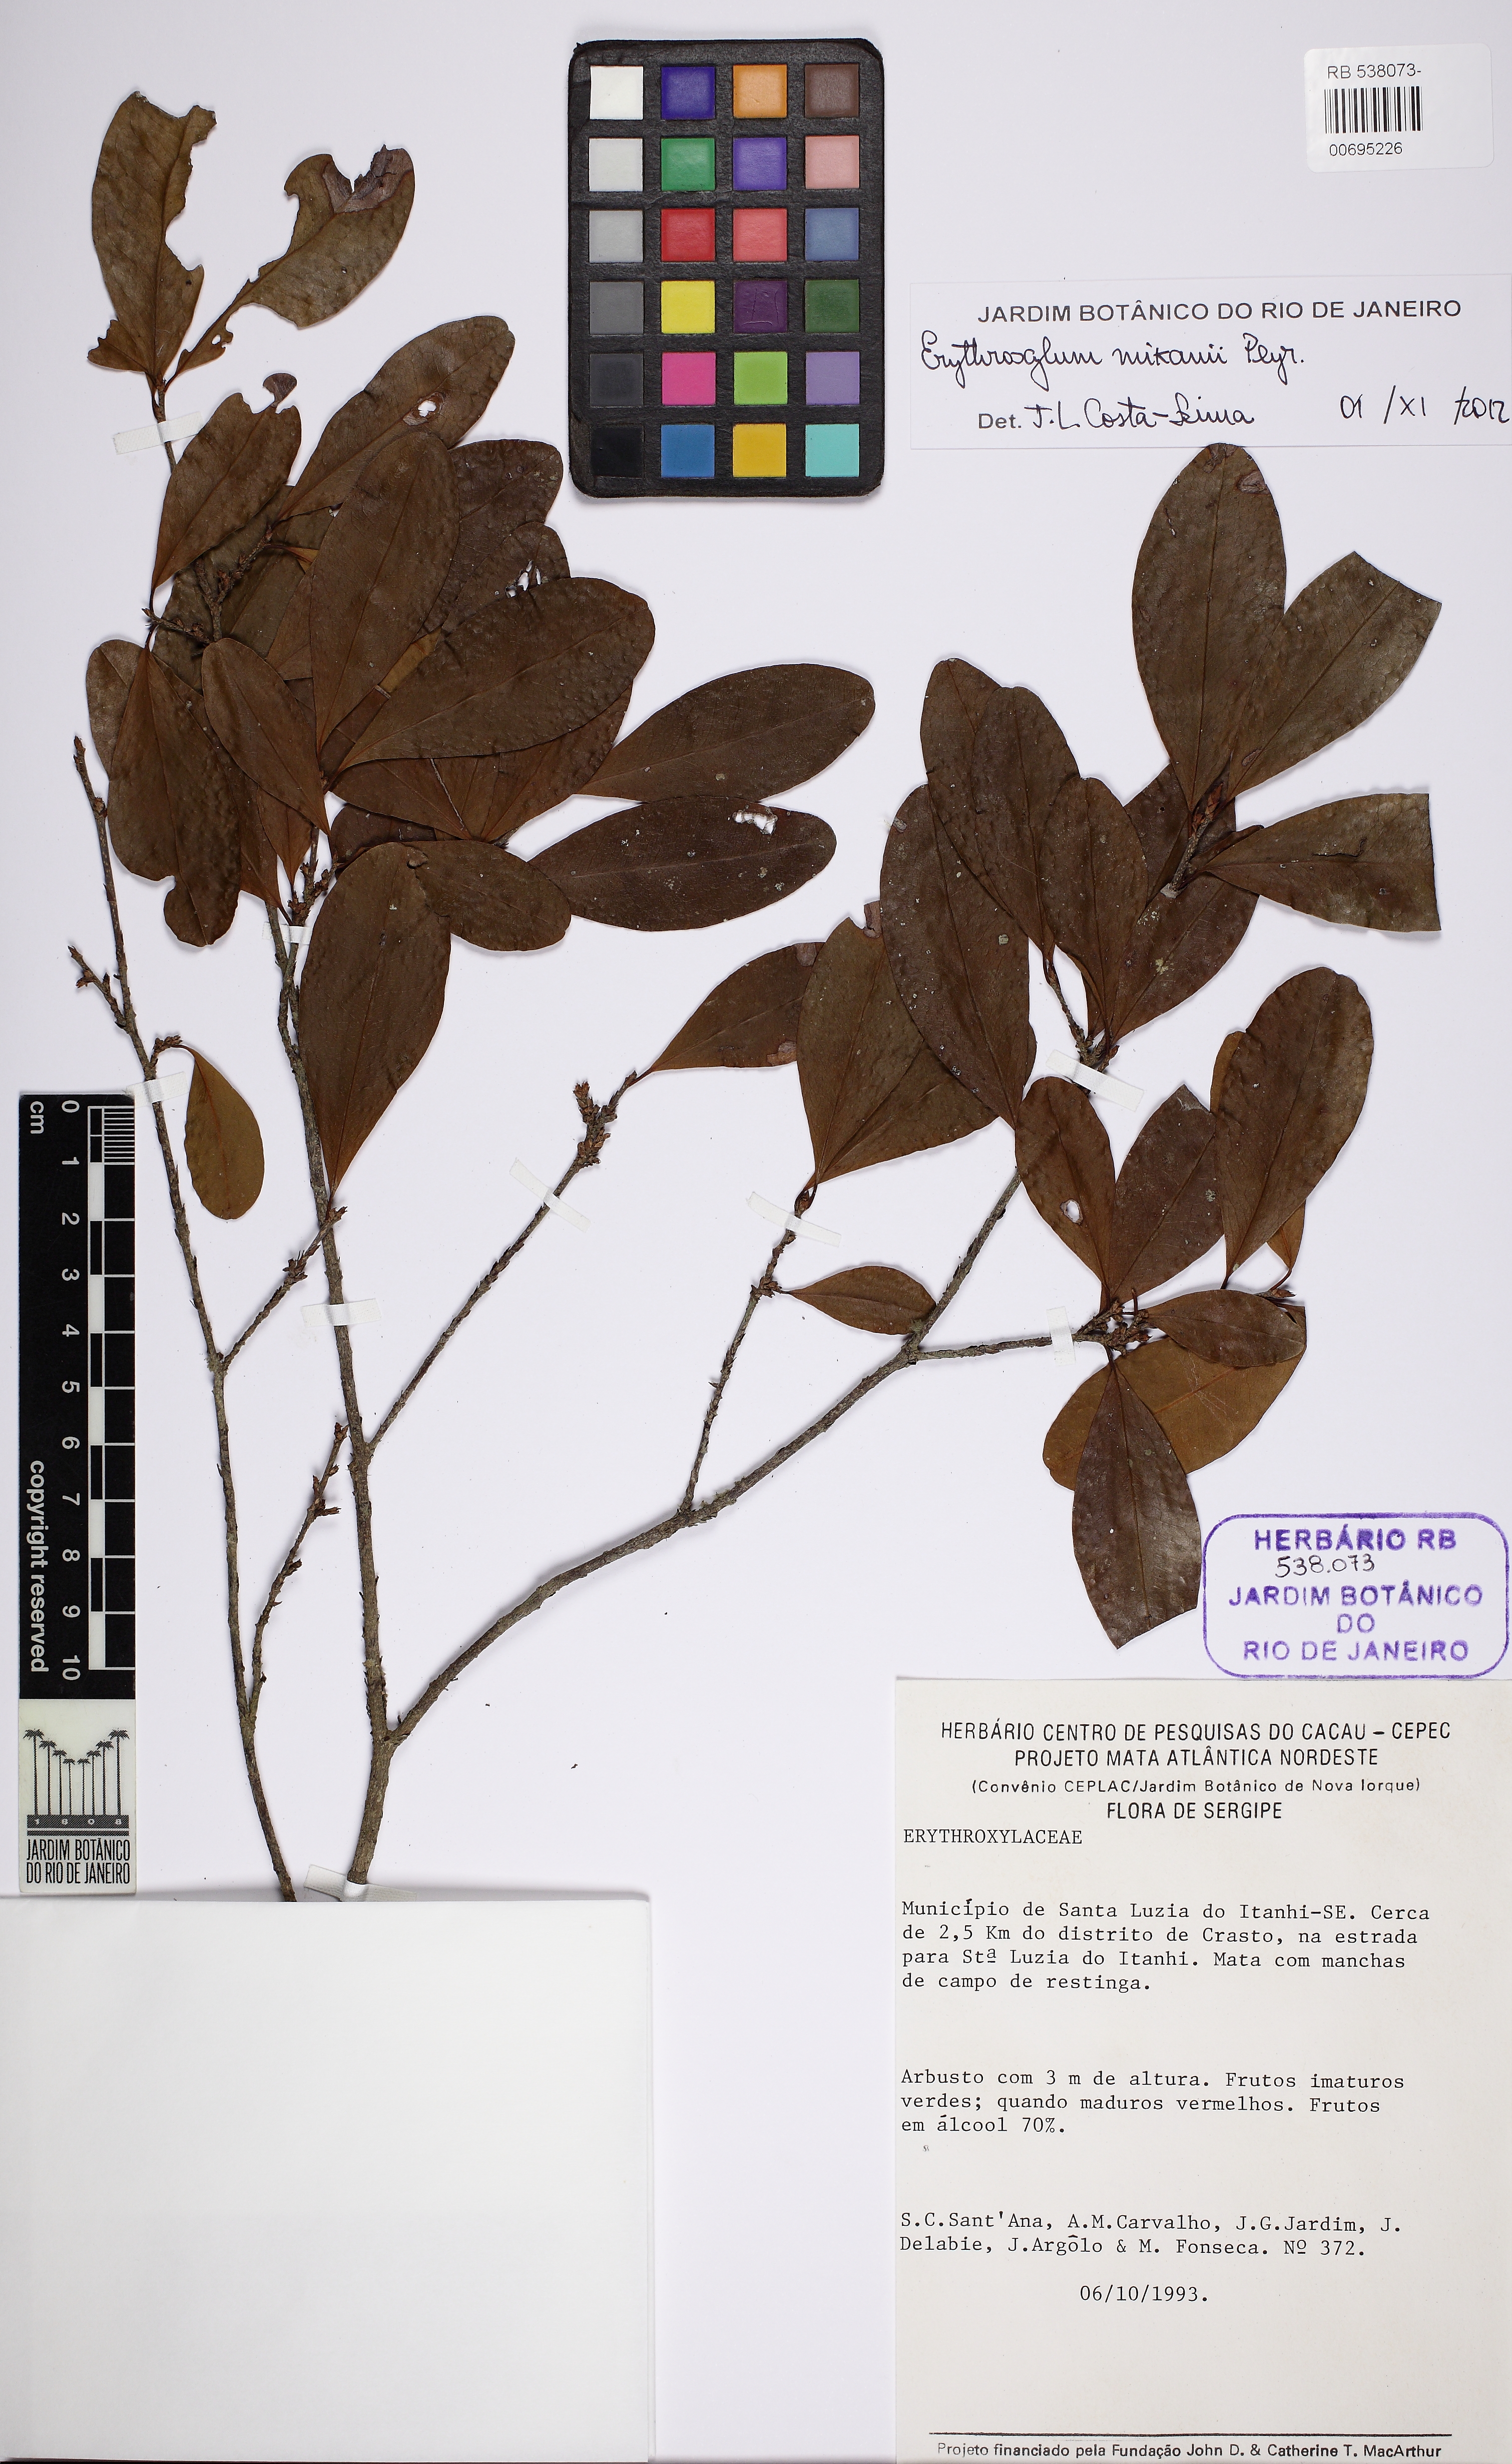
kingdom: Plantae
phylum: Tracheophyta
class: Magnoliopsida
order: Malpighiales
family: Erythroxylaceae
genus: Erythroxylum
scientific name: Erythroxylum mikanii
